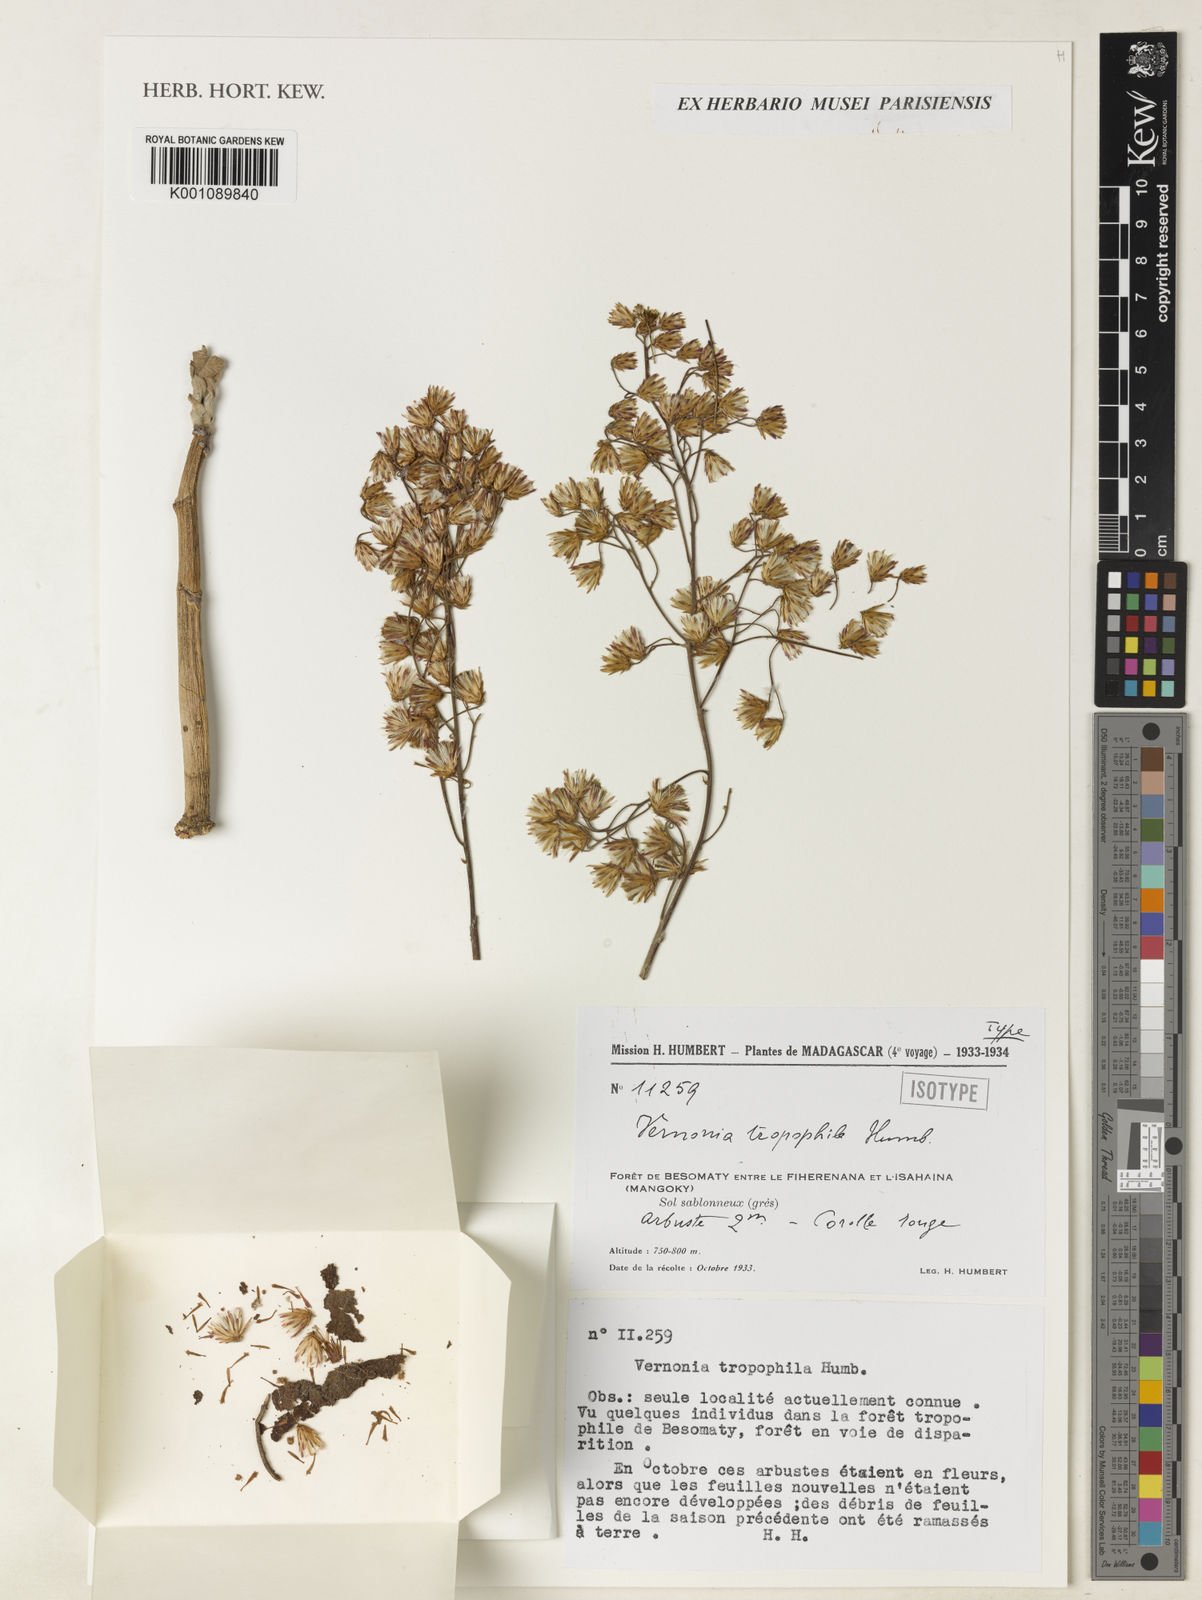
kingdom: Plantae
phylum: Tracheophyta
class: Magnoliopsida
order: Asterales
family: Asteraceae
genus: Vernonia
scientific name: Vernonia tropophila
